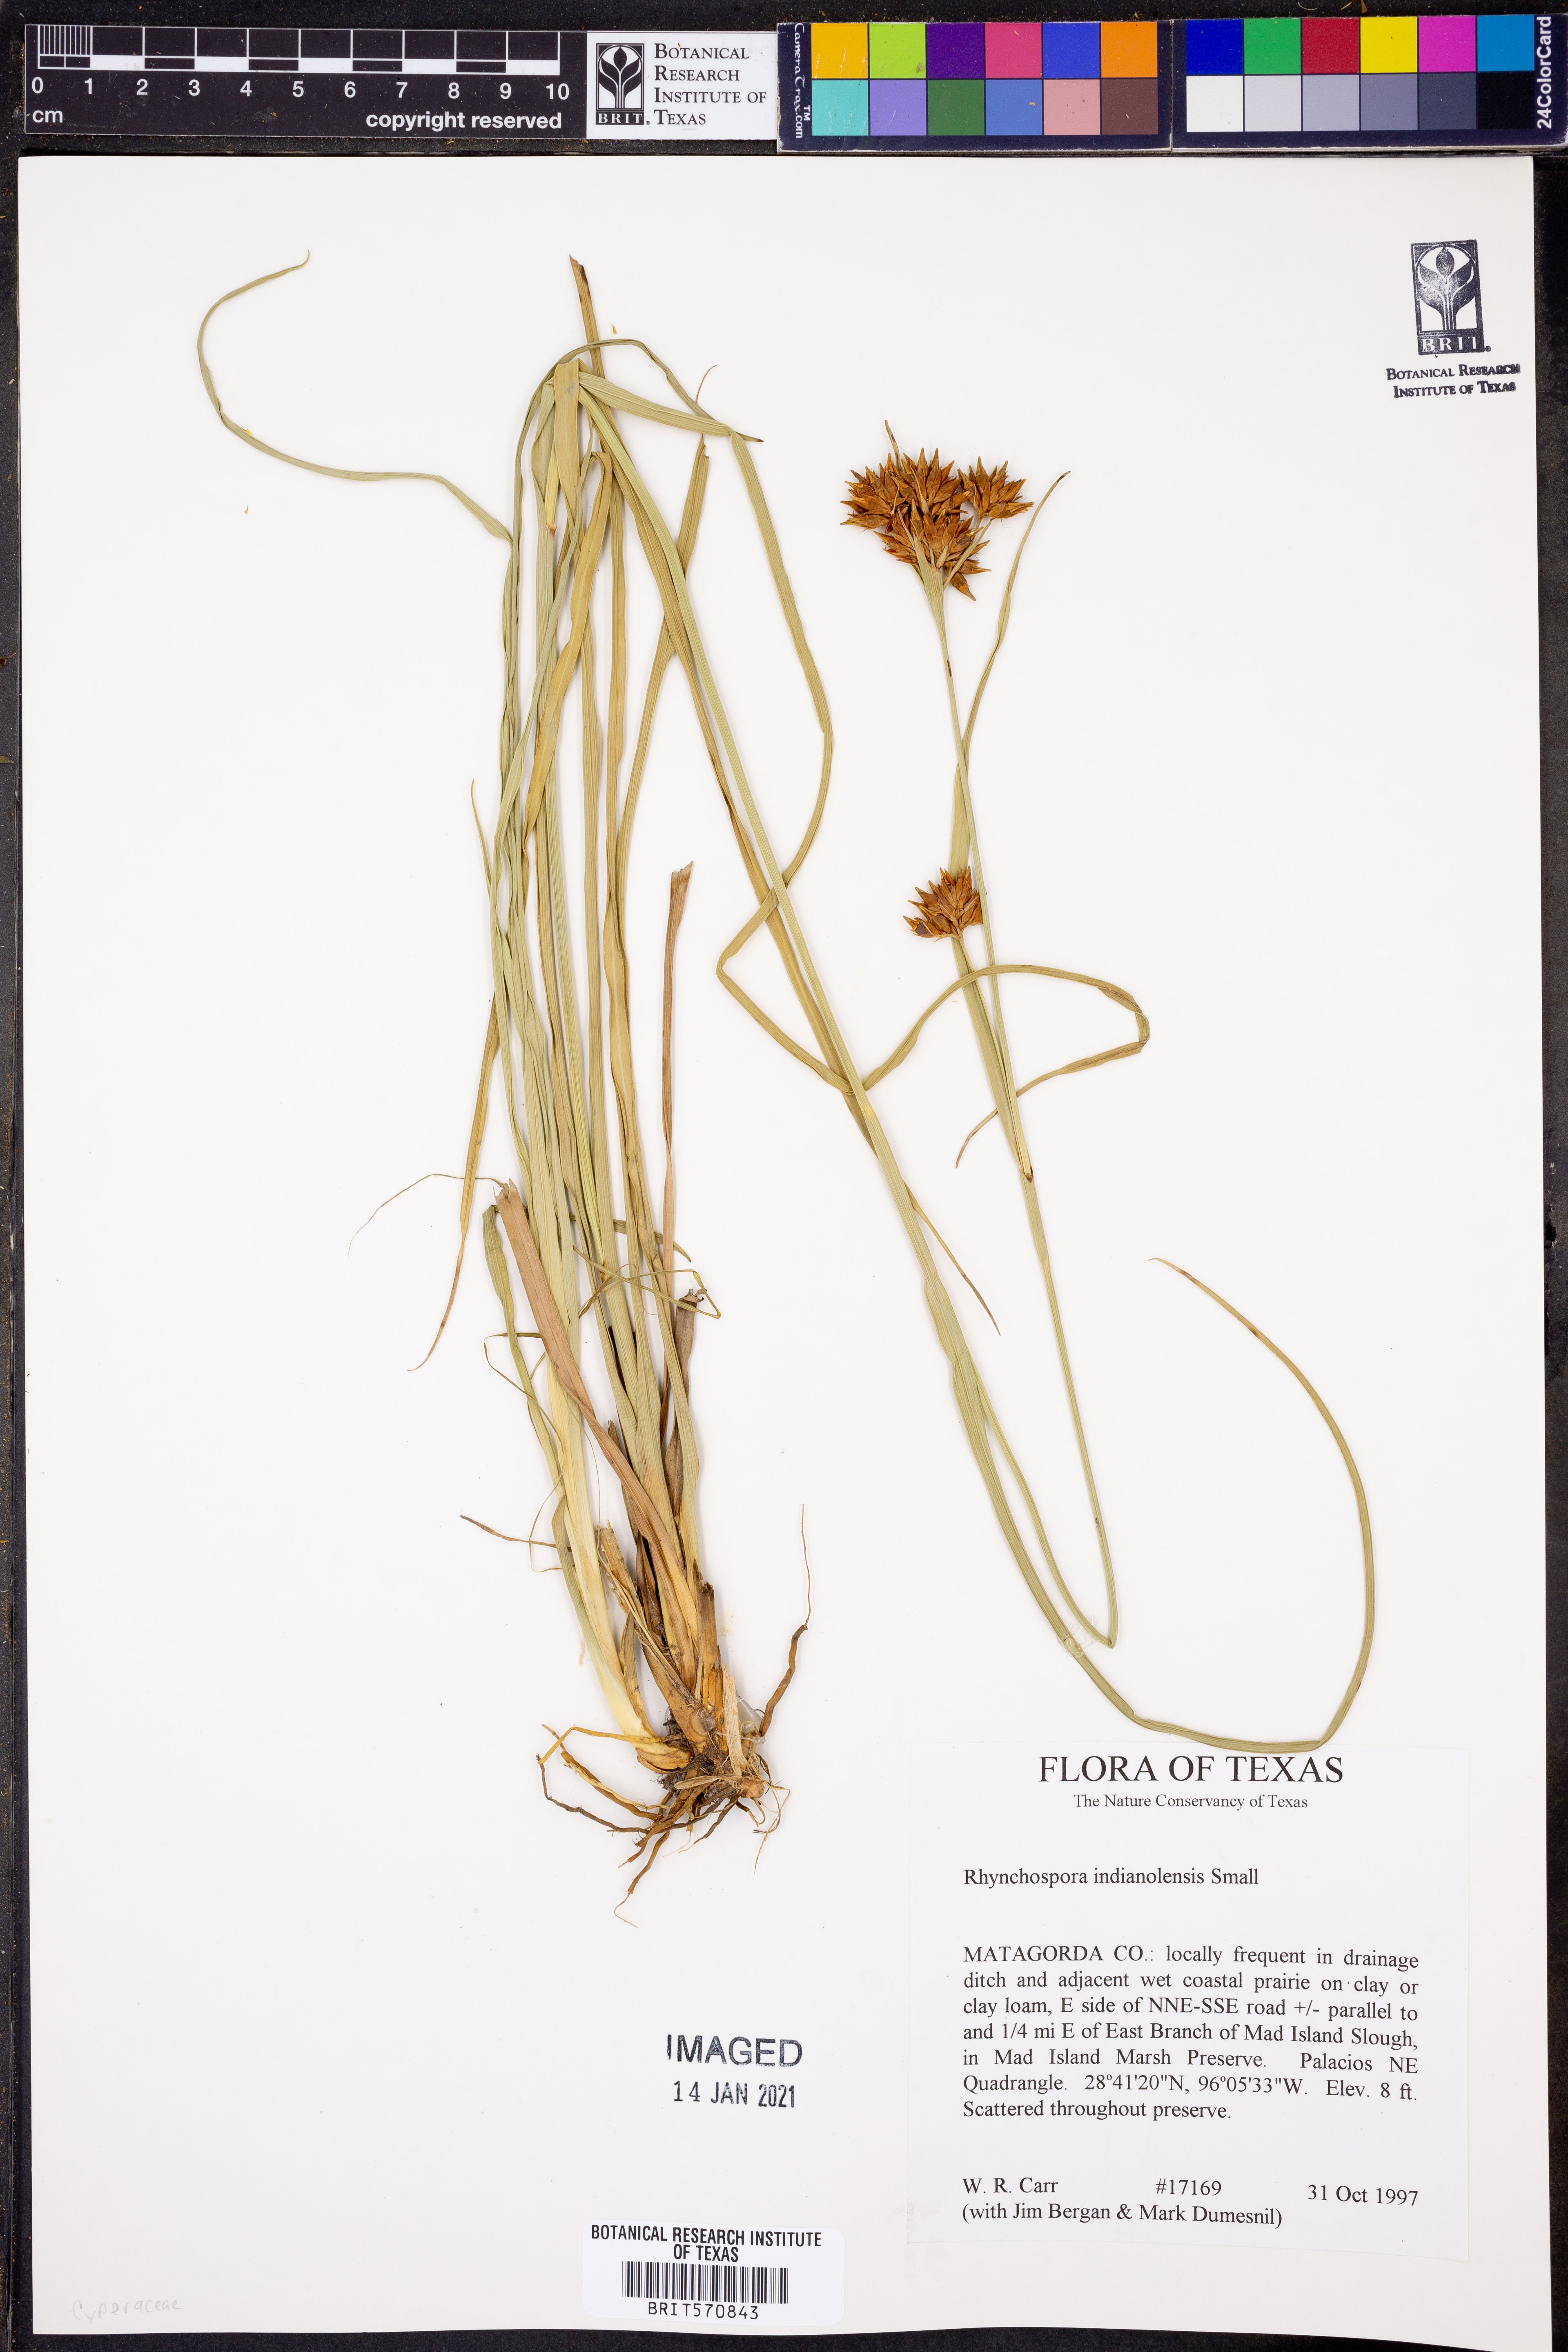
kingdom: Plantae
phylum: Tracheophyta
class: Liliopsida
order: Poales
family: Cyperaceae
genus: Rhynchospora
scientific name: Rhynchospora scutellata
